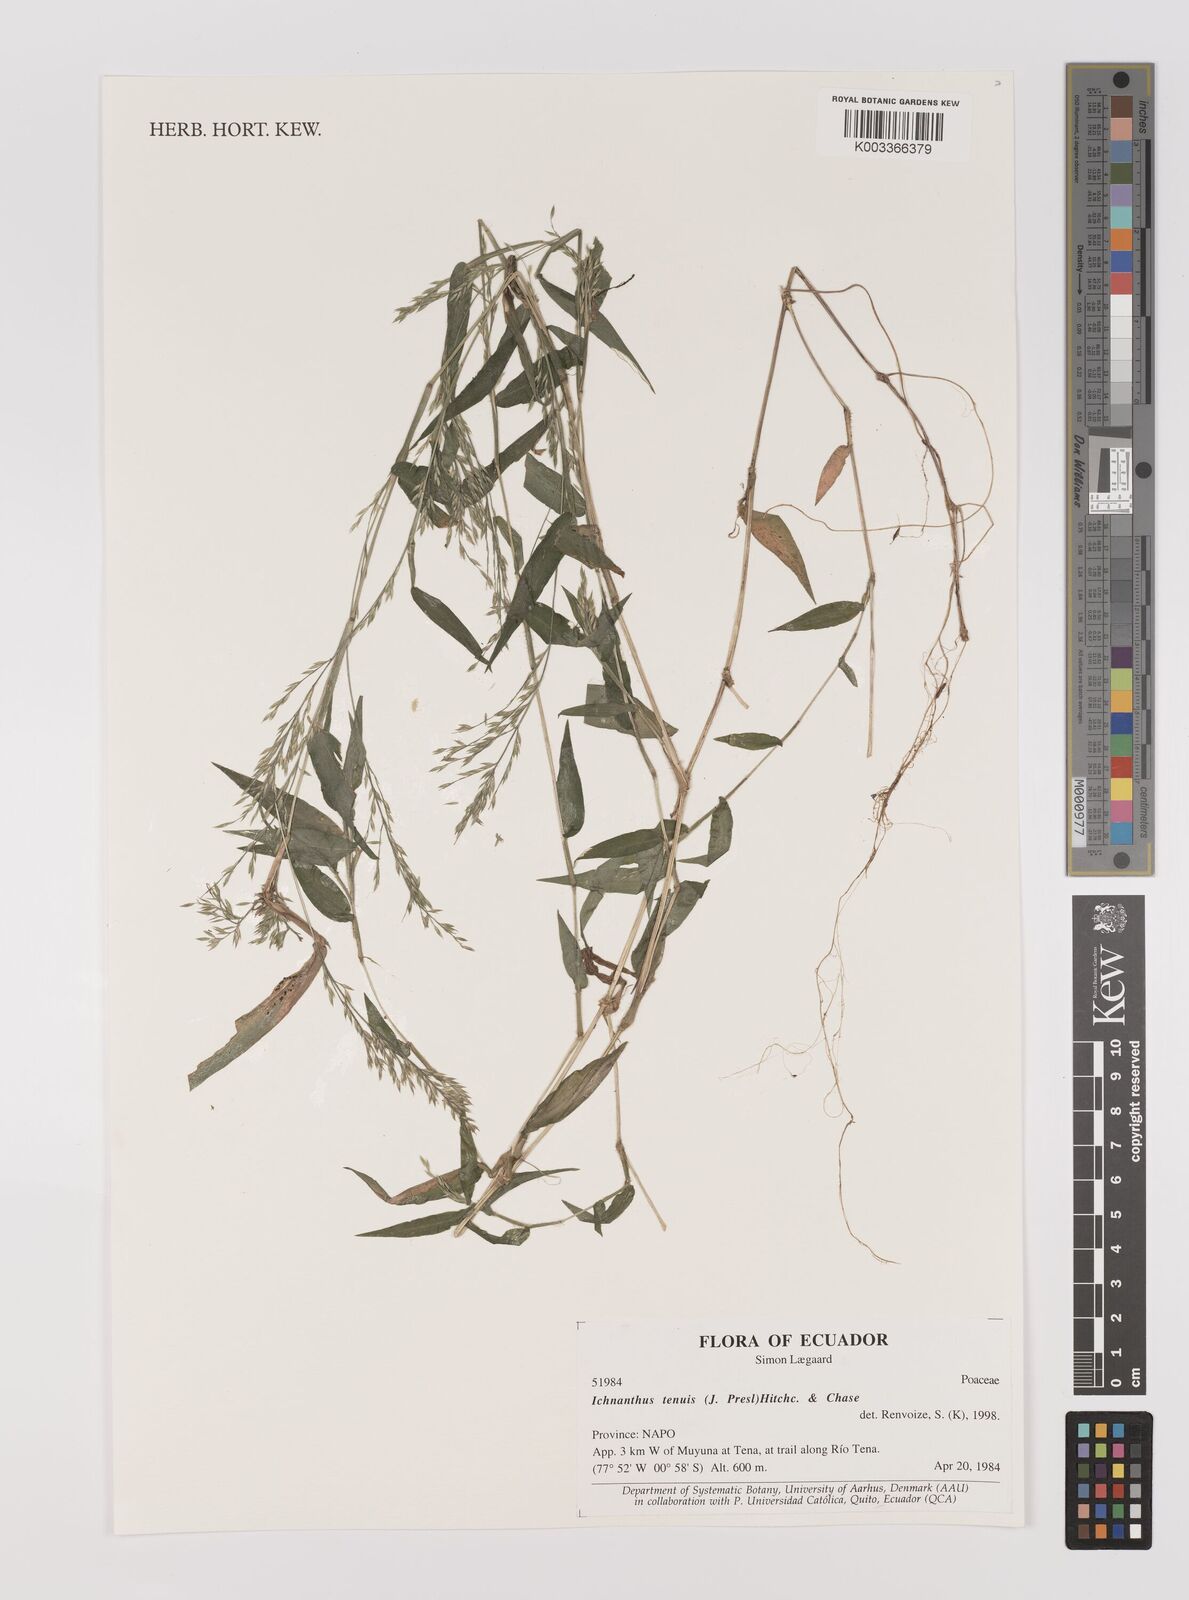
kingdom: Plantae
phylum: Tracheophyta
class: Liliopsida
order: Poales
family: Poaceae
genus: Ichnanthus
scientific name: Ichnanthus tenuis
